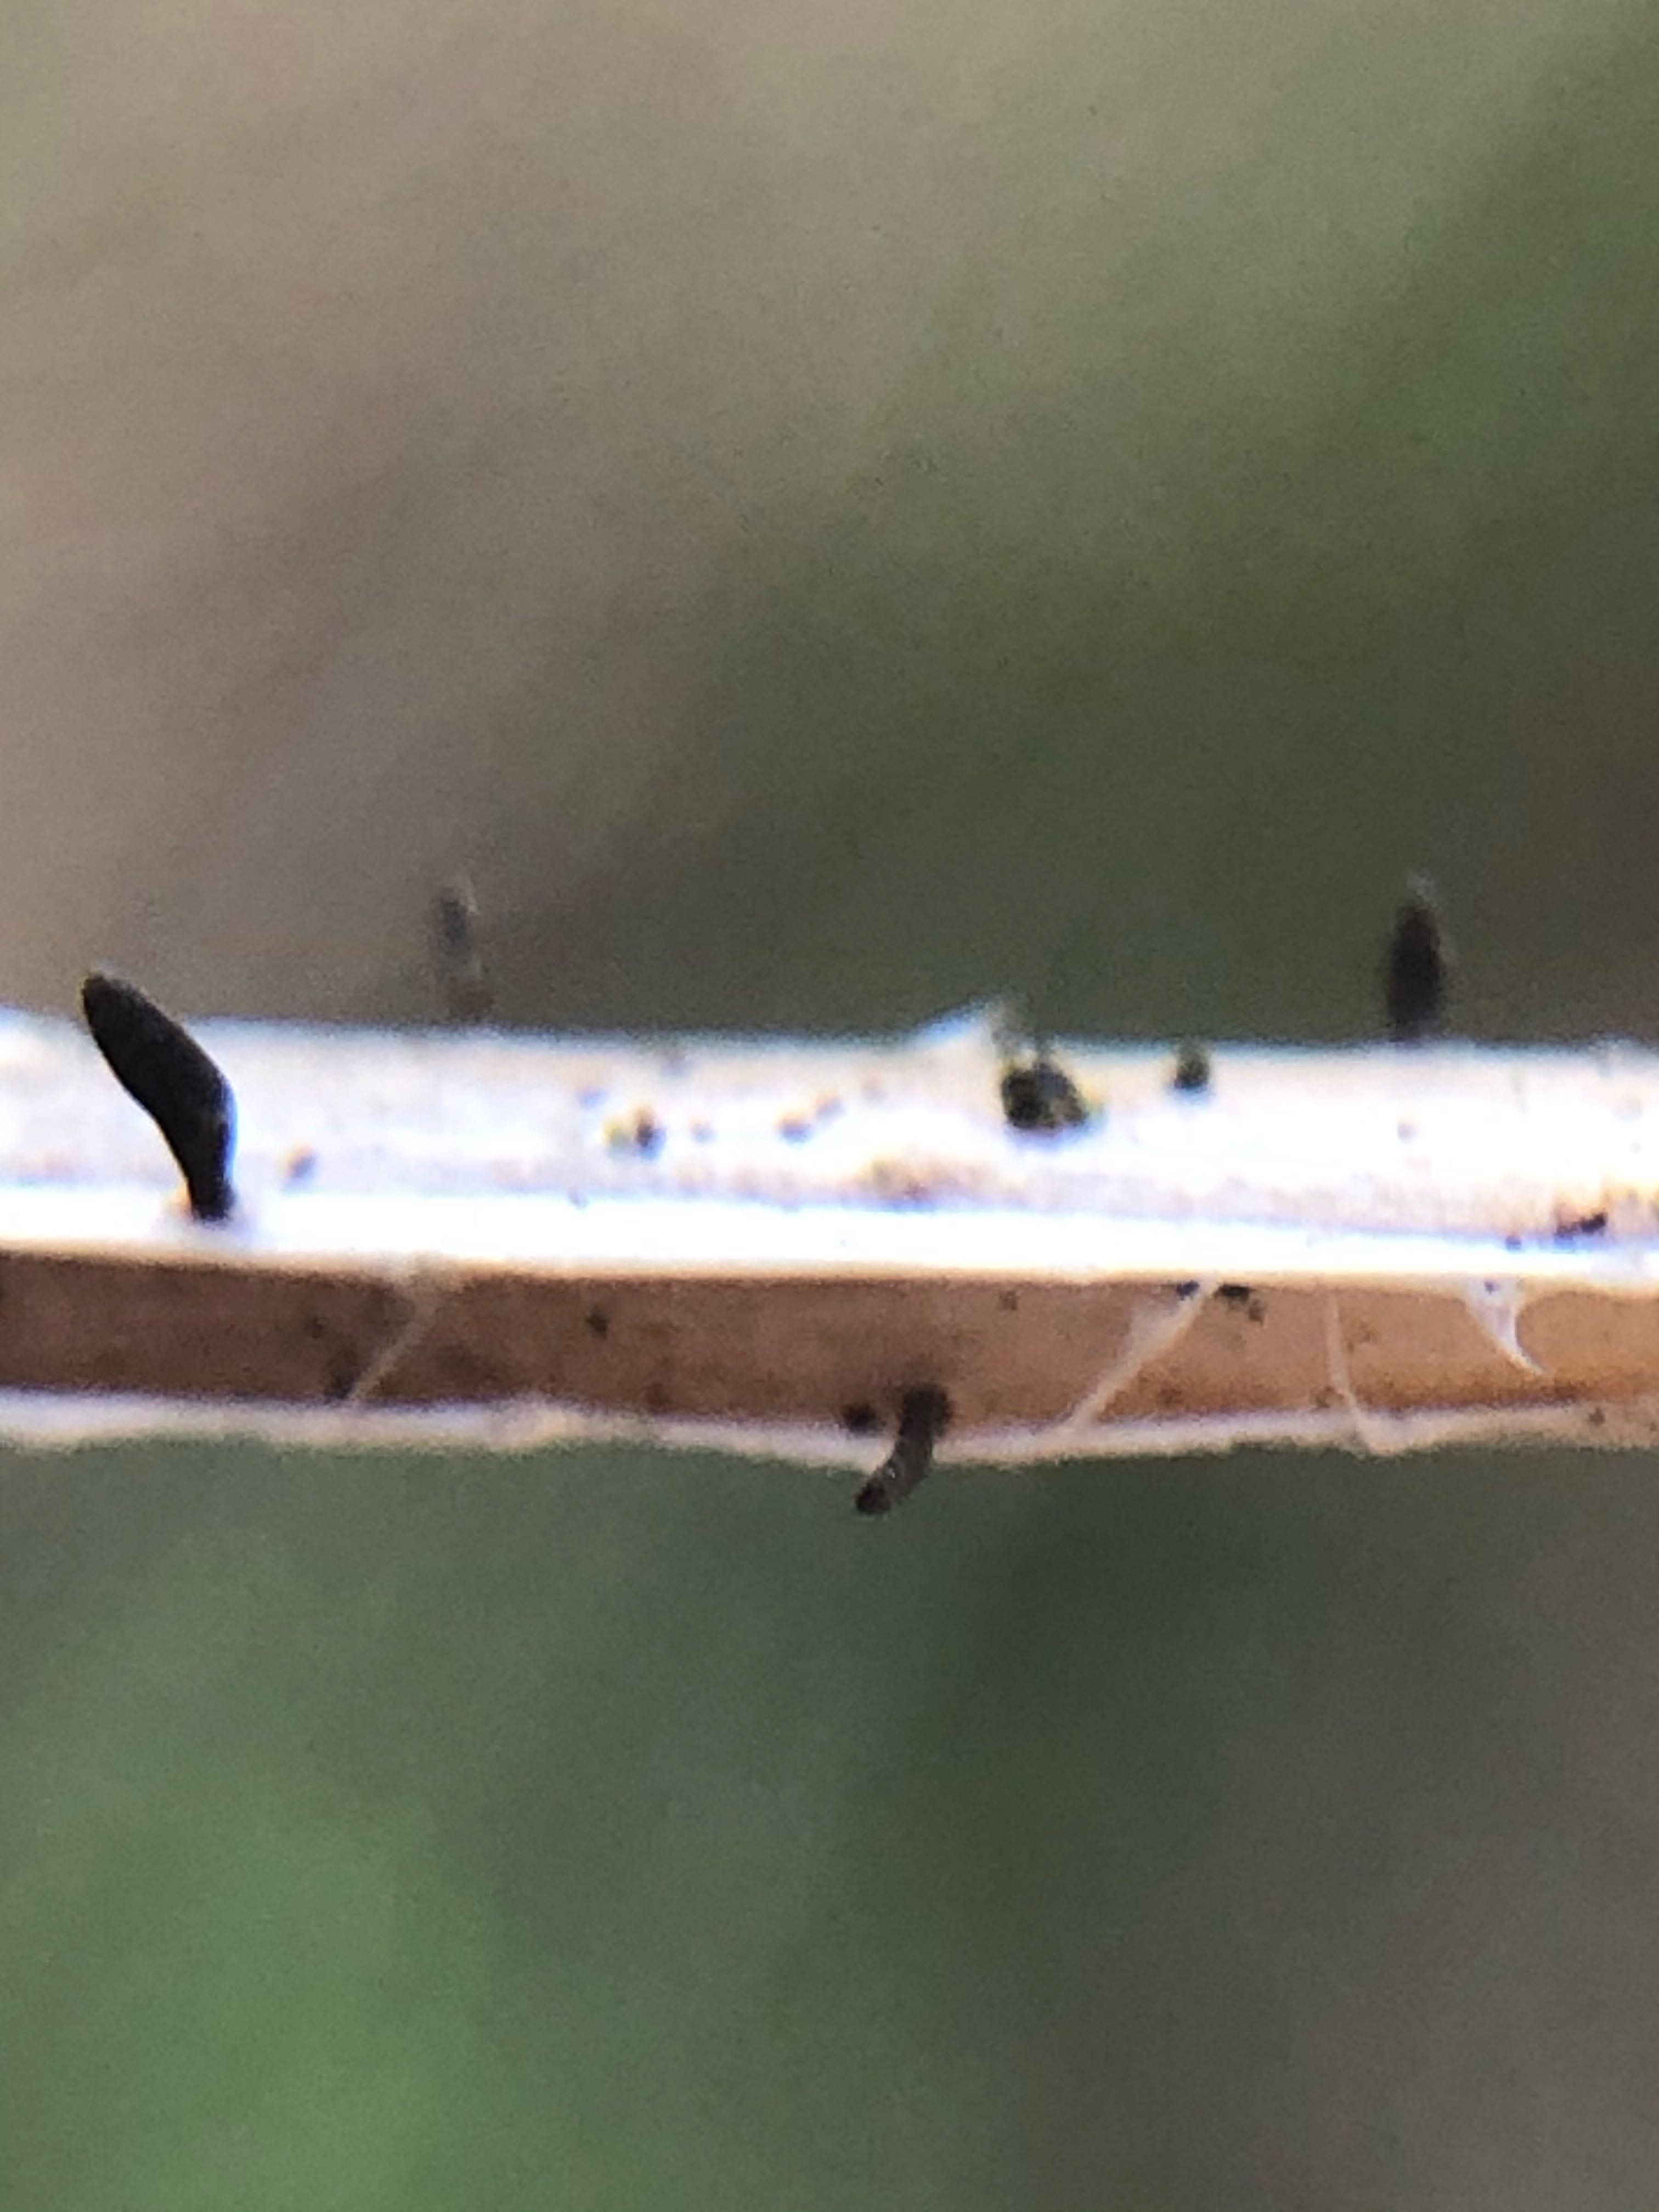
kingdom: Fungi
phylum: Ascomycota
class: Dothideomycetes
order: Acrospermales
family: Acrospermaceae
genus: Acrospermum
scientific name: Acrospermum pallidulum
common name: snerre-stængeltunge
